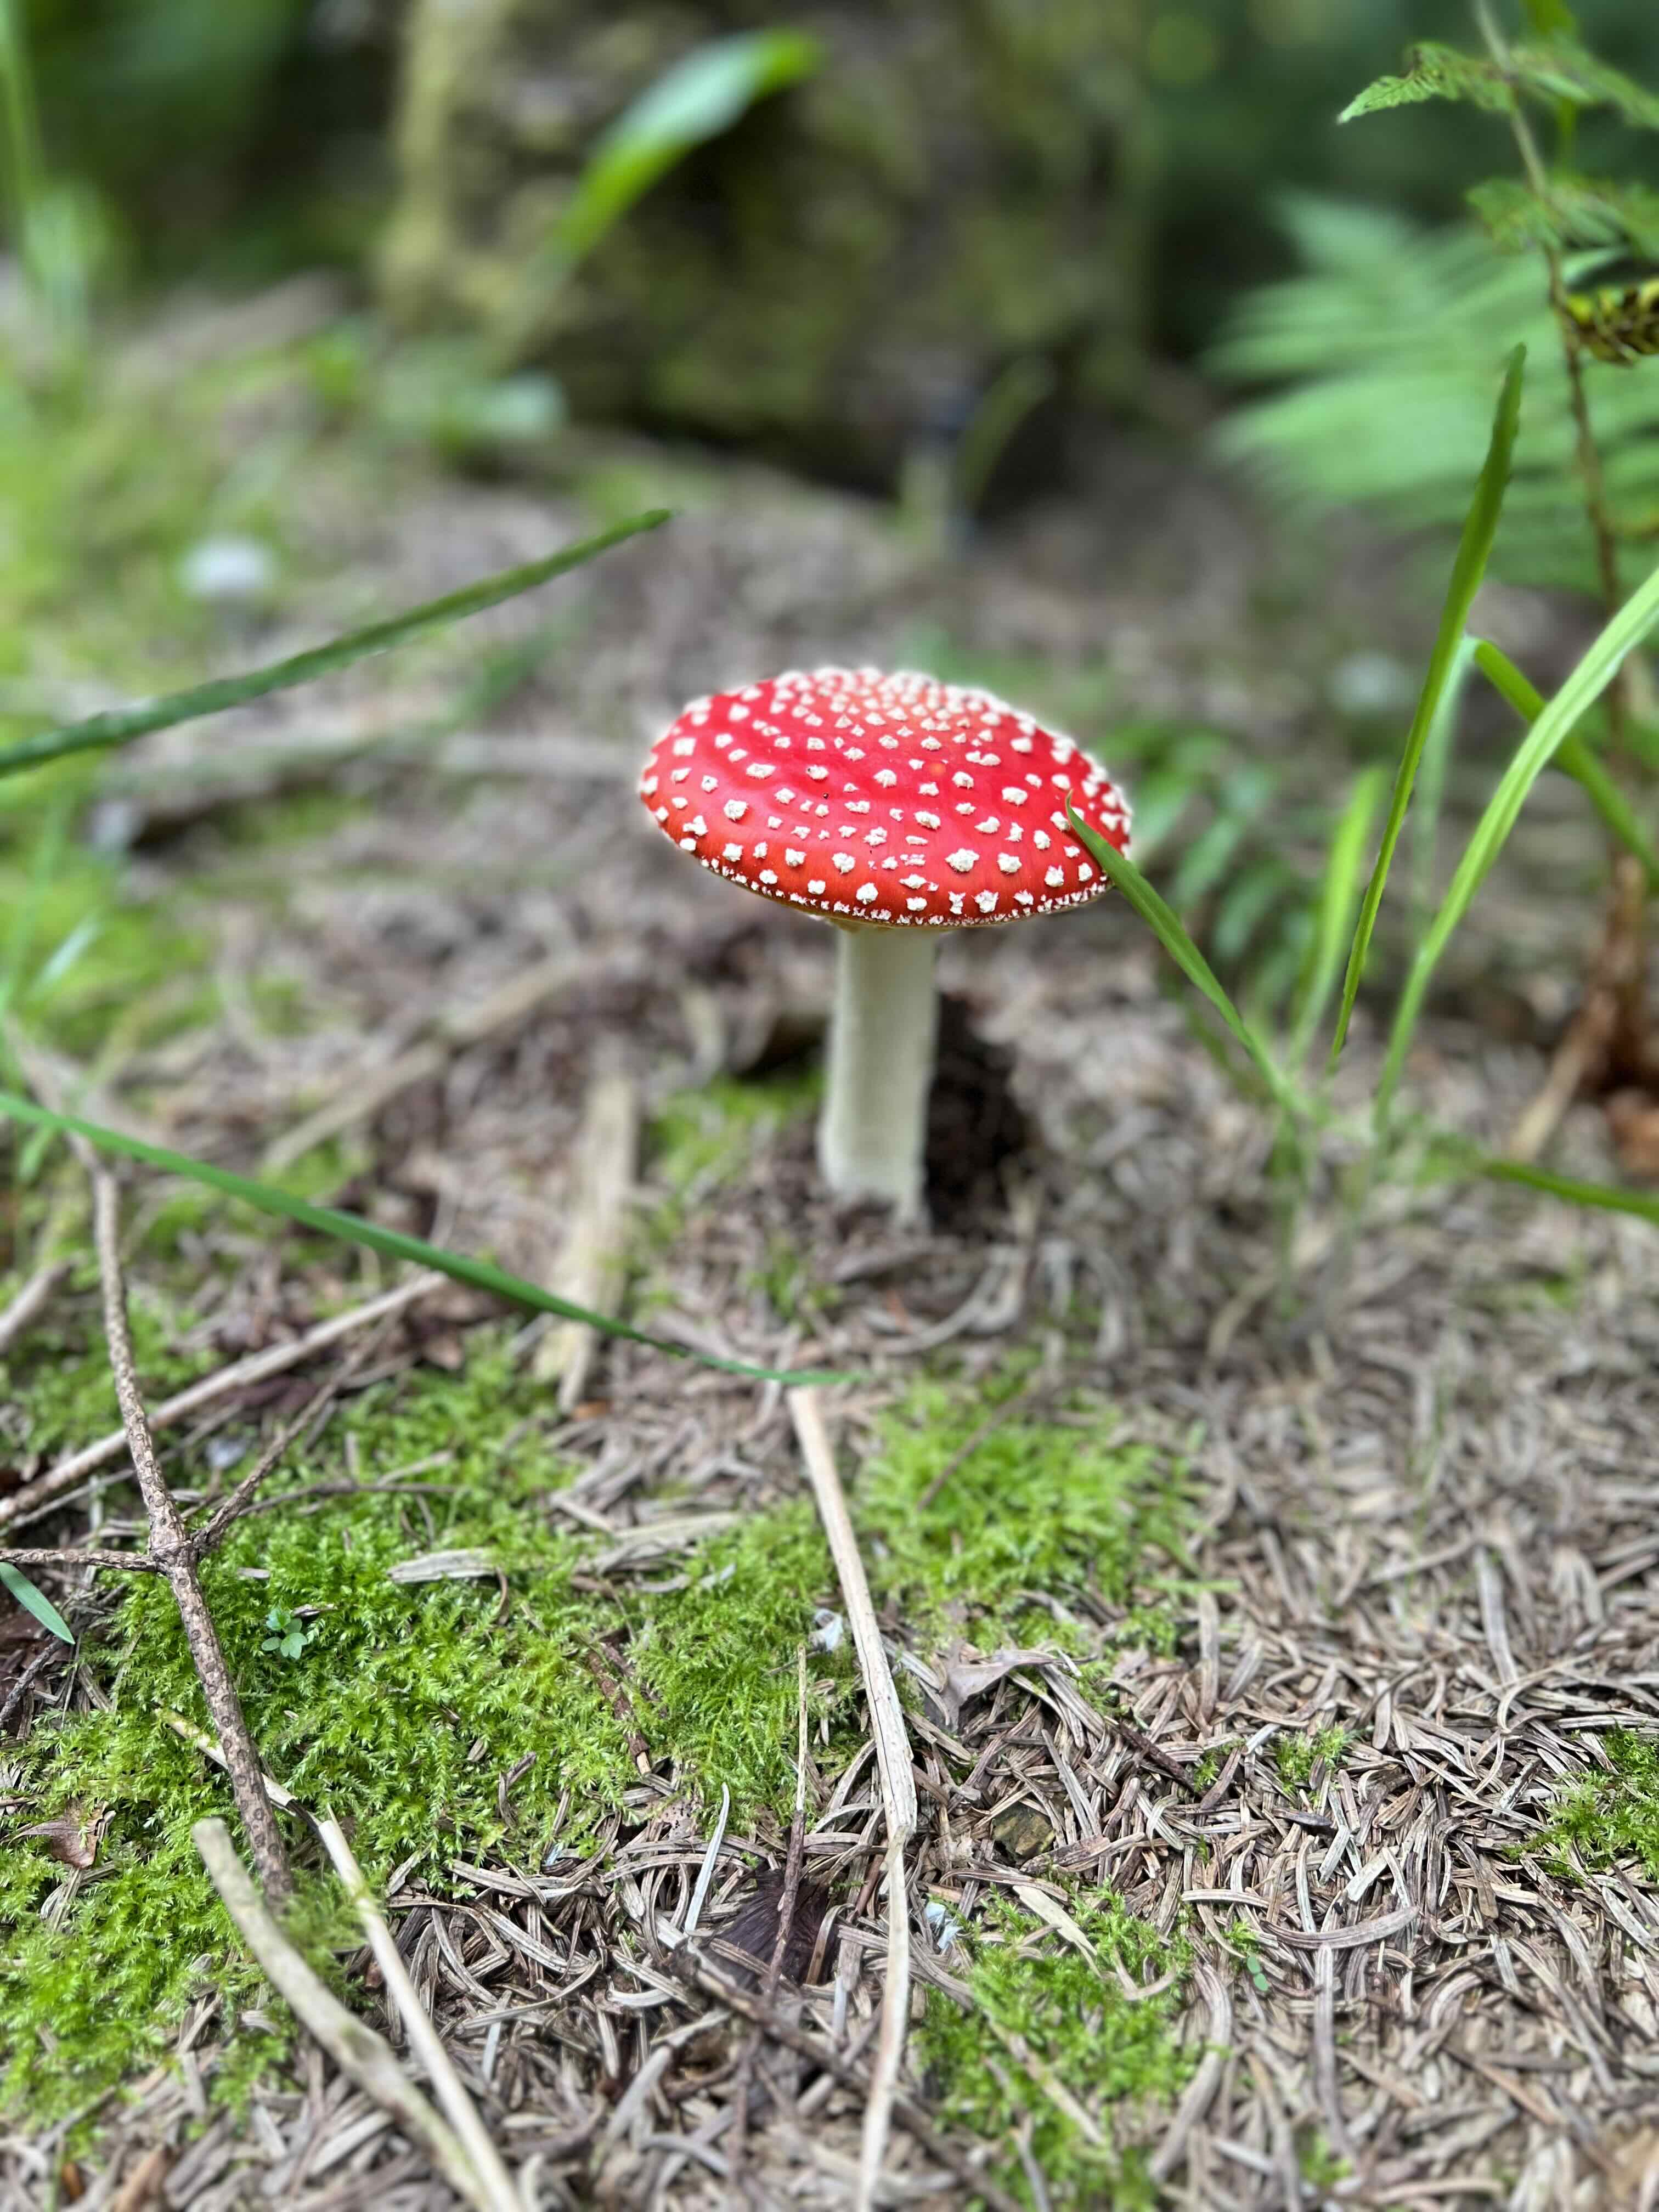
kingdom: Fungi
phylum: Basidiomycota
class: Agaricomycetes
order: Agaricales
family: Amanitaceae
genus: Amanita
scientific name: Amanita muscaria
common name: rød fluesvamp
